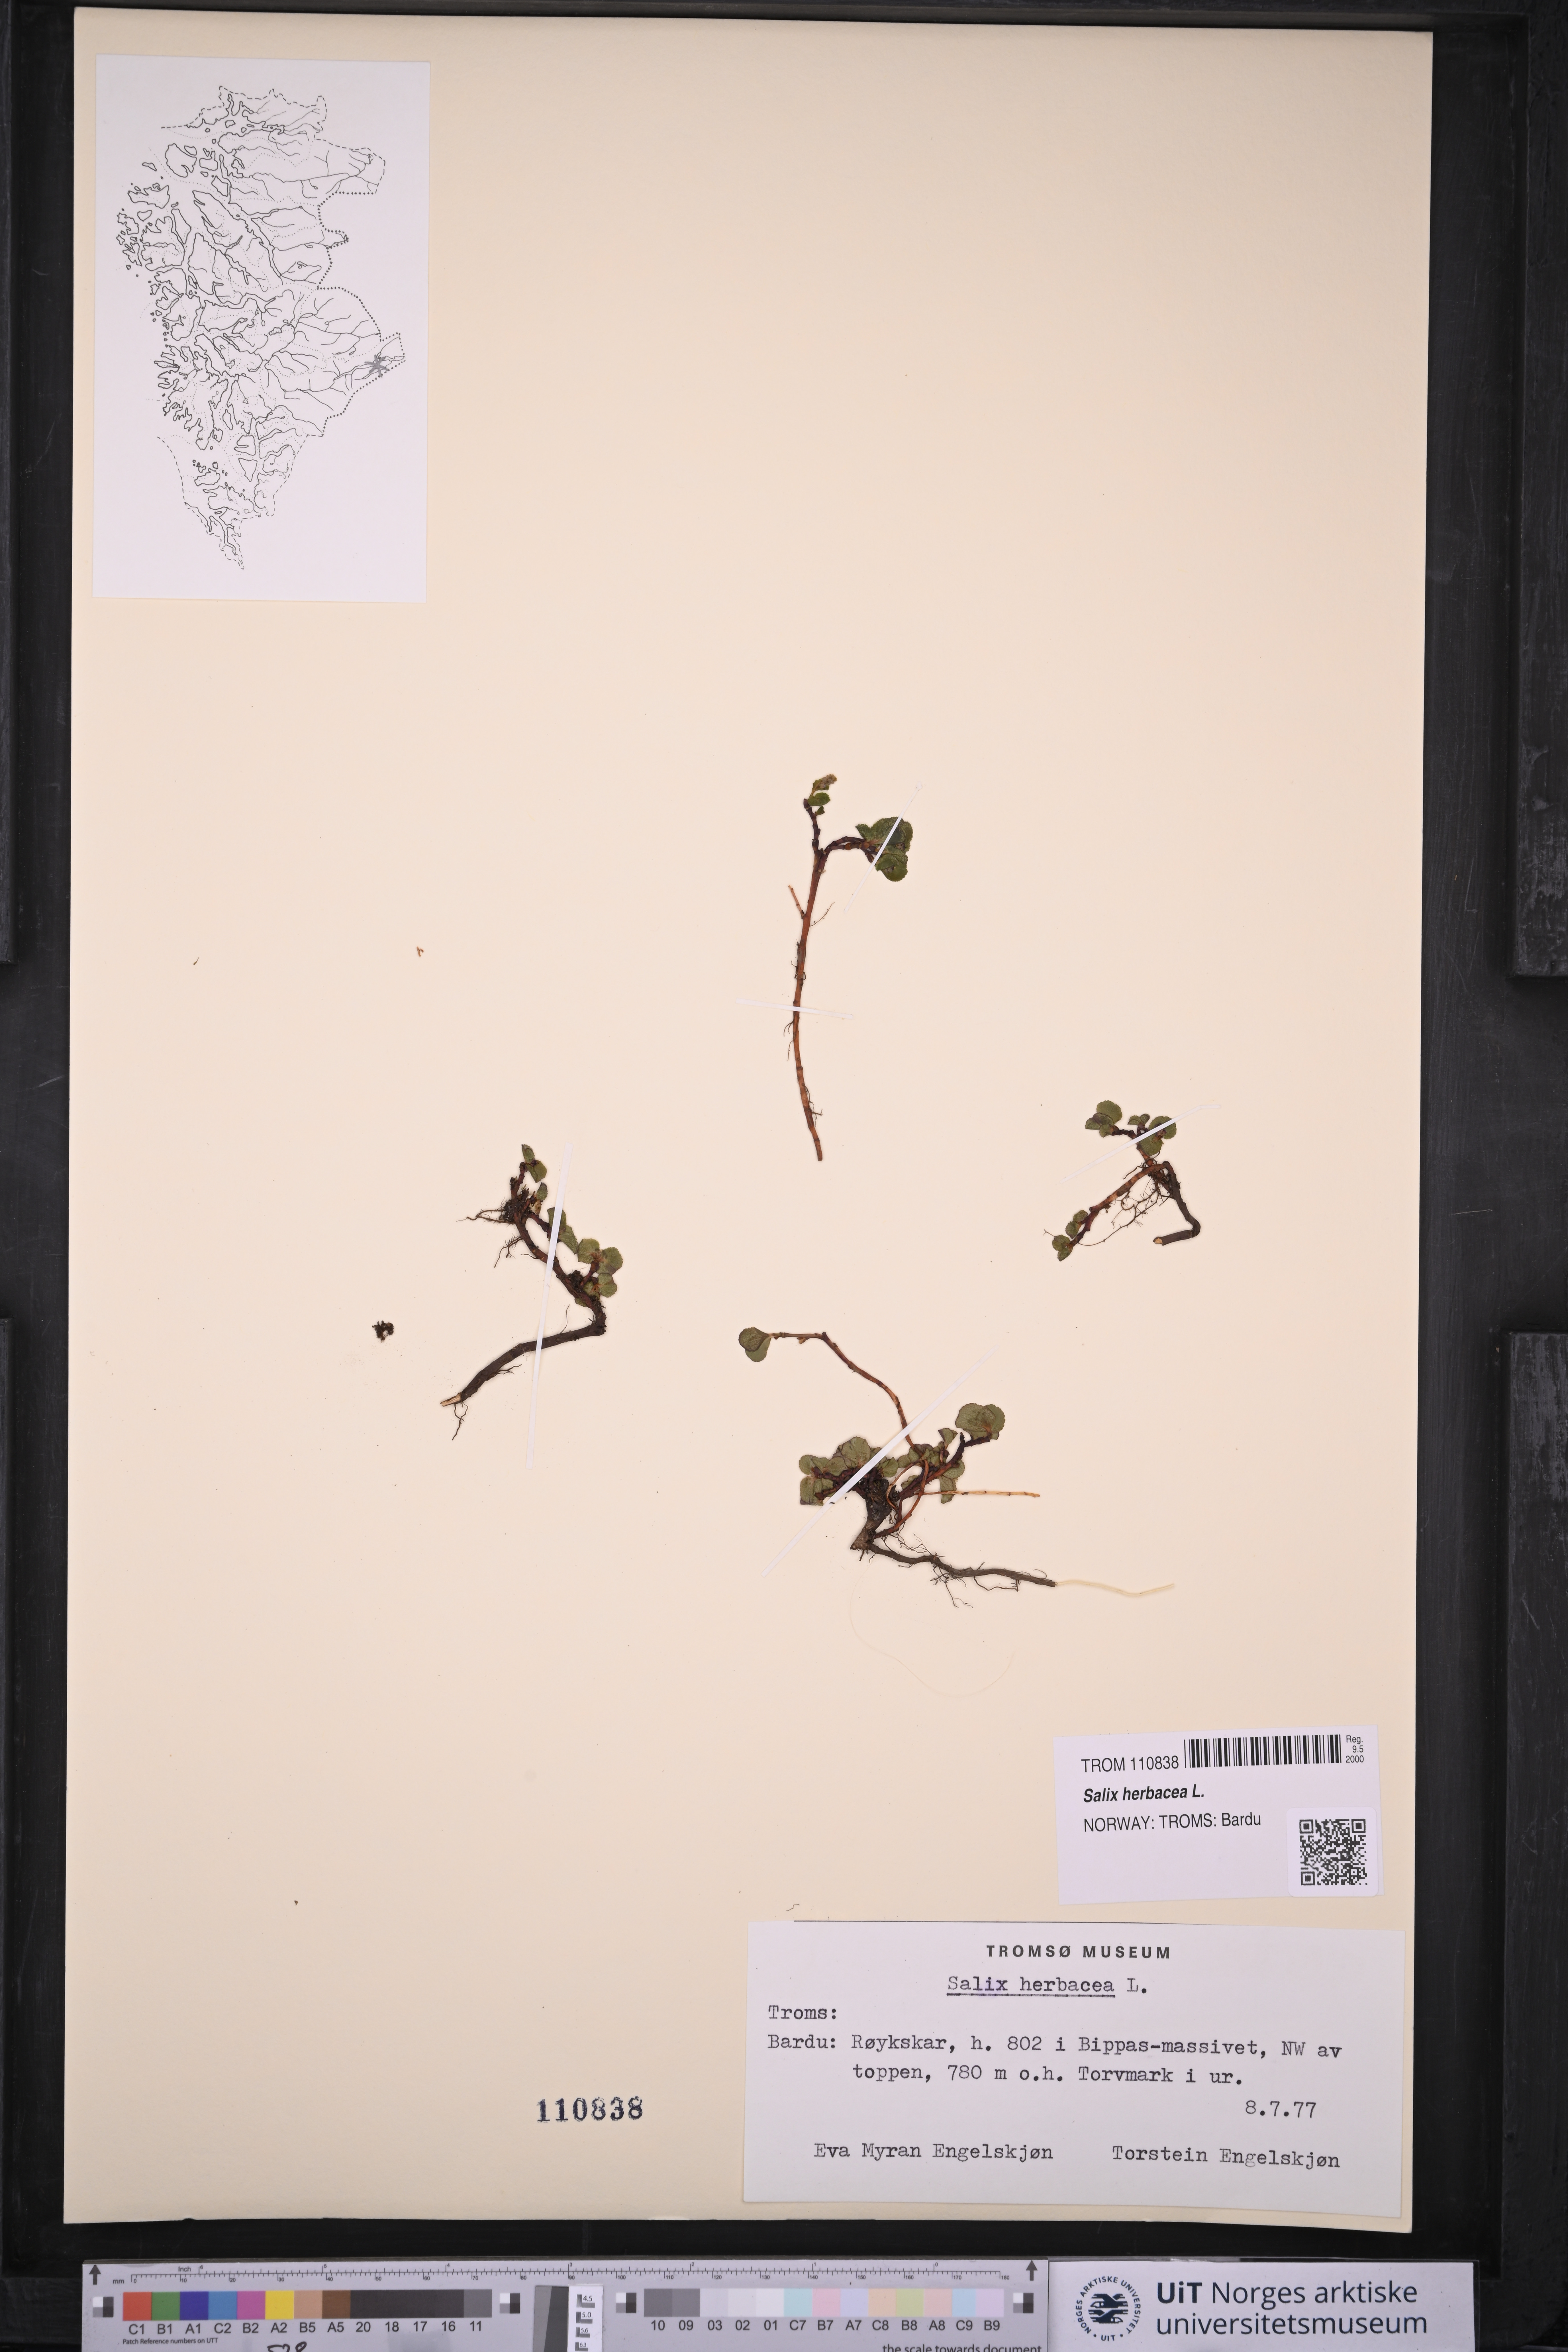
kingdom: Plantae
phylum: Tracheophyta
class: Magnoliopsida
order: Malpighiales
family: Salicaceae
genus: Salix
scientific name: Salix herbacea
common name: Dwarf willow
